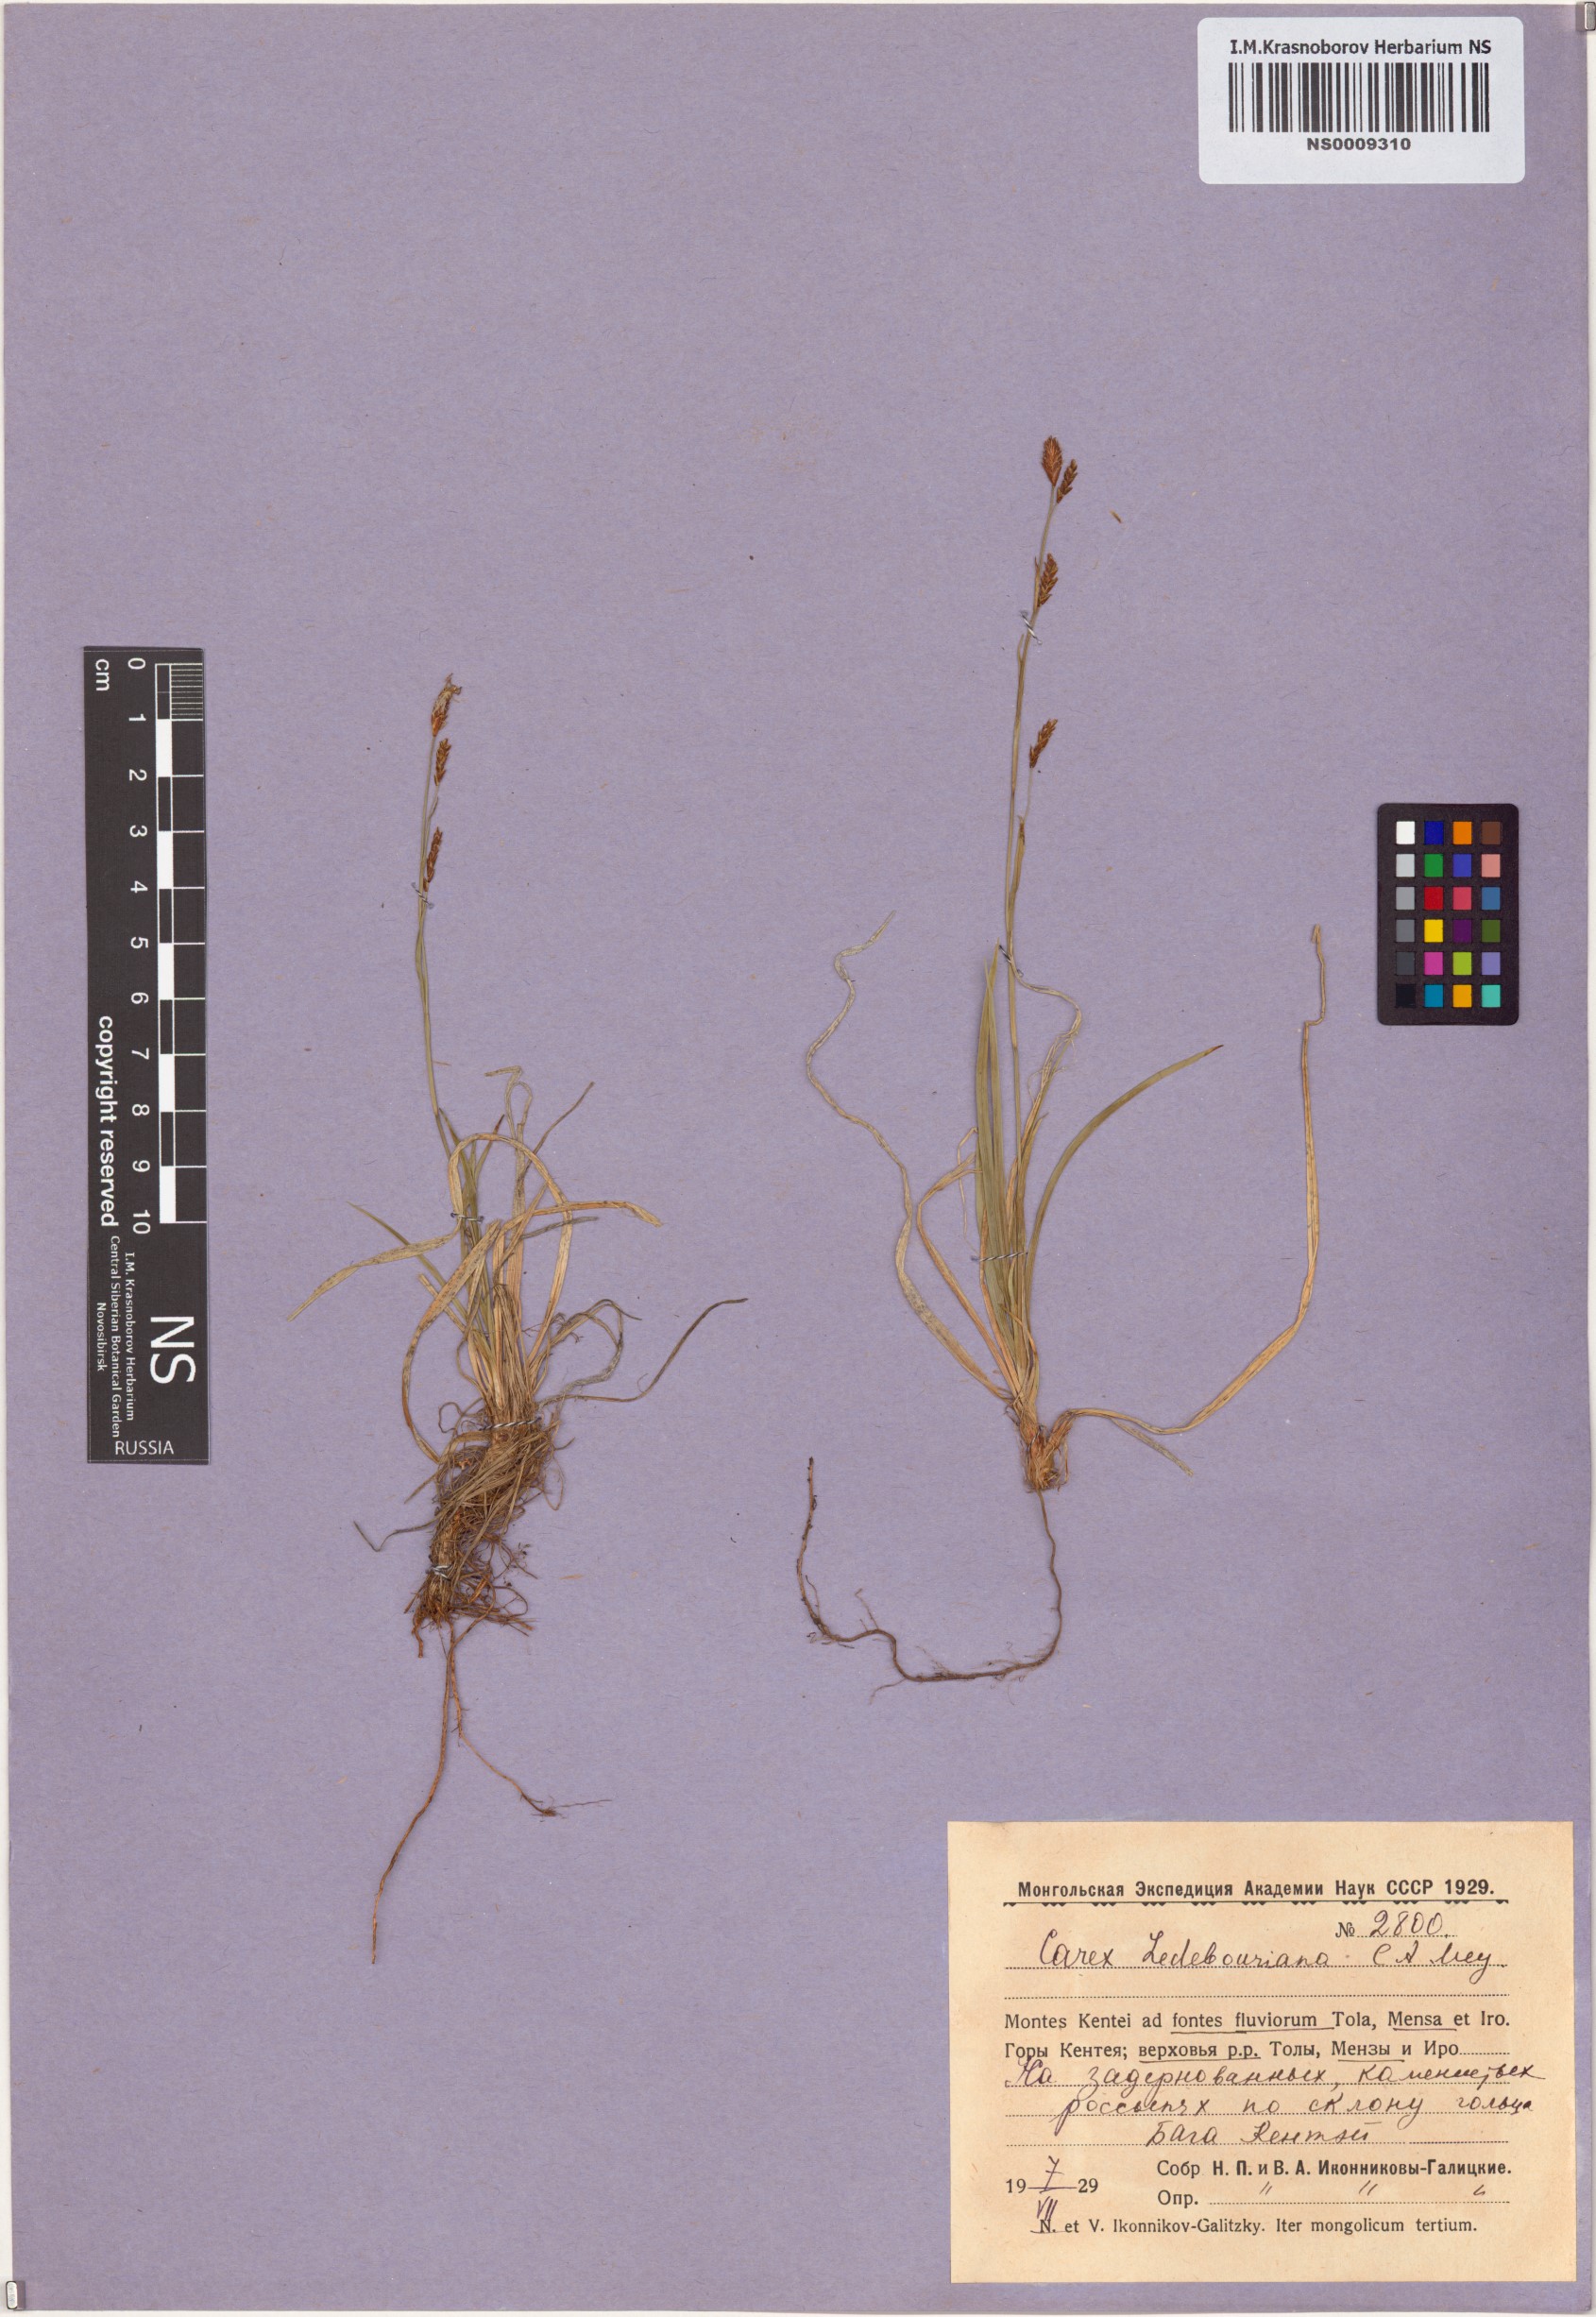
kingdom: Plantae
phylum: Tracheophyta
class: Liliopsida
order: Poales
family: Cyperaceae
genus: Carex
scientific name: Carex ledebouriana
